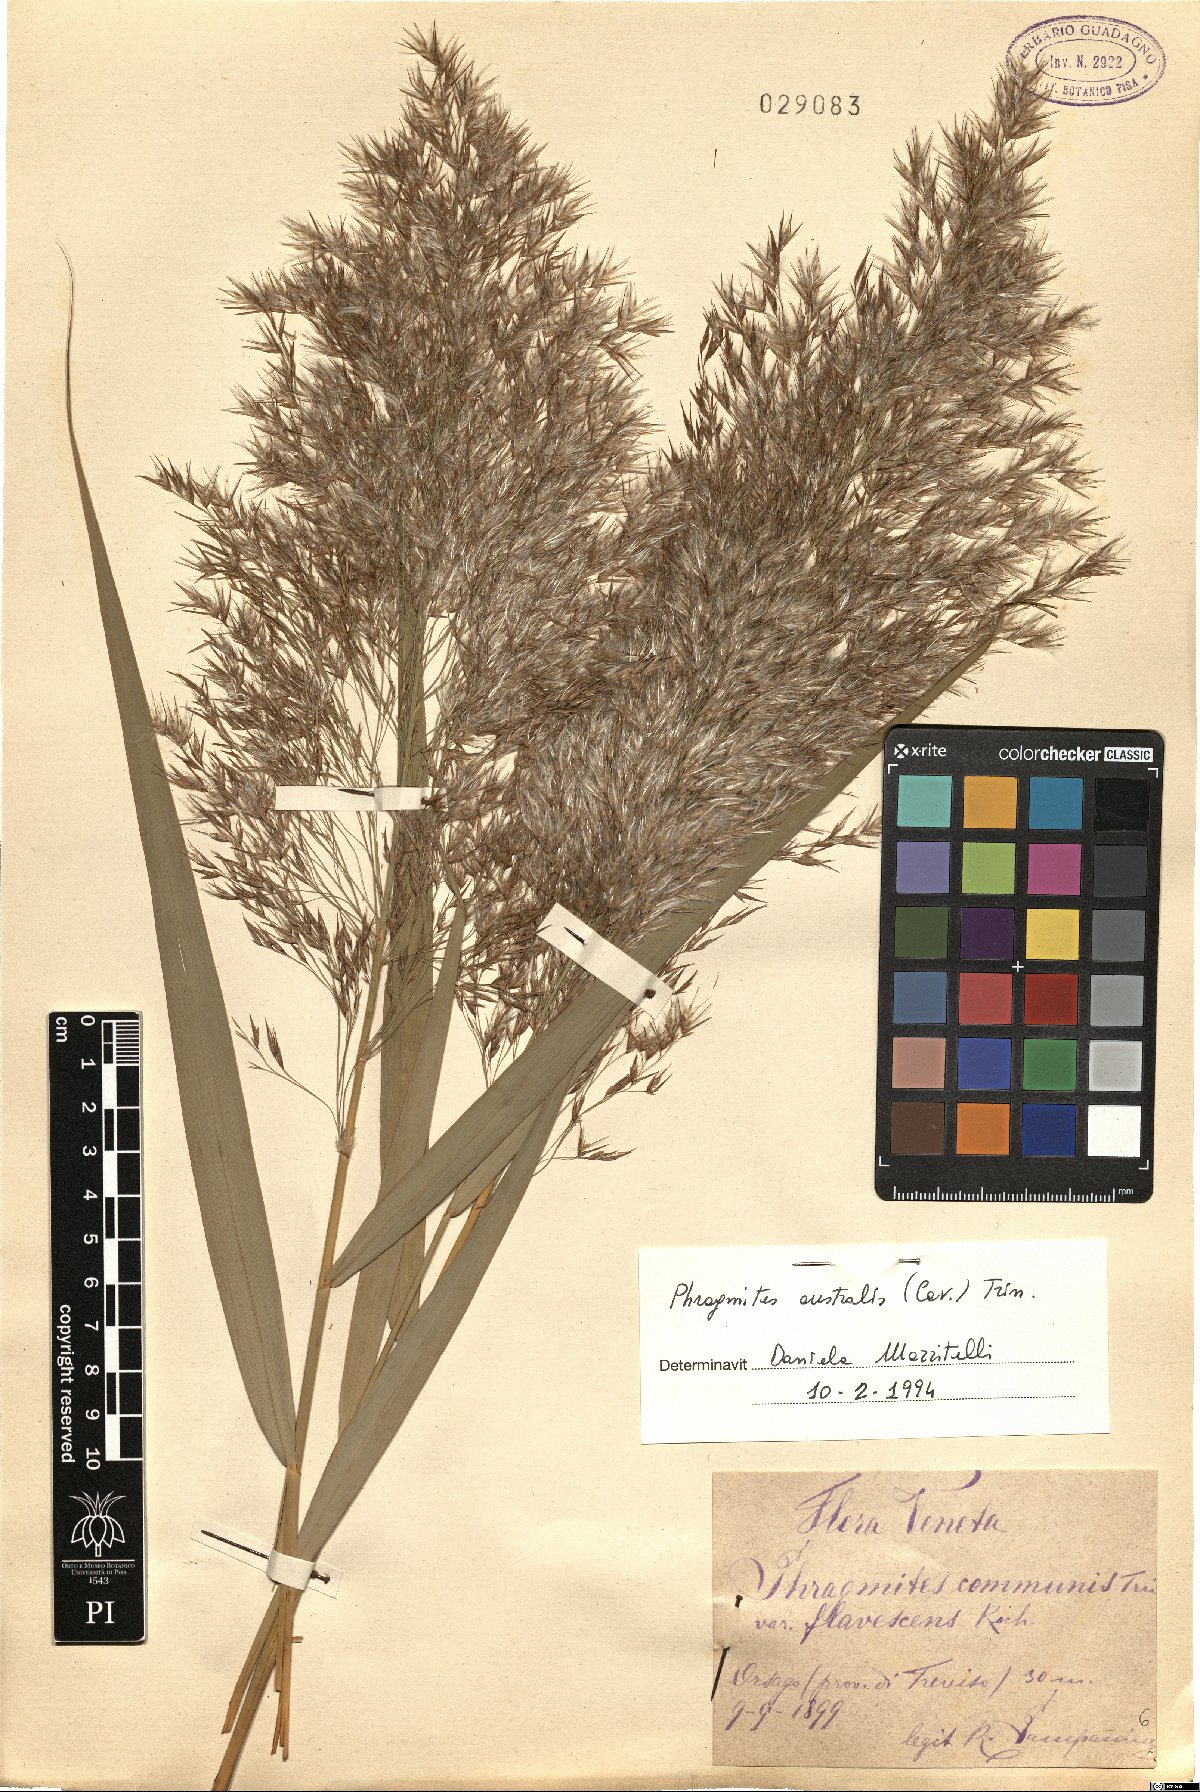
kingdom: Plantae
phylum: Tracheophyta
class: Liliopsida
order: Poales
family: Poaceae
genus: Phragmites
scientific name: Phragmites australis
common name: Common reed
